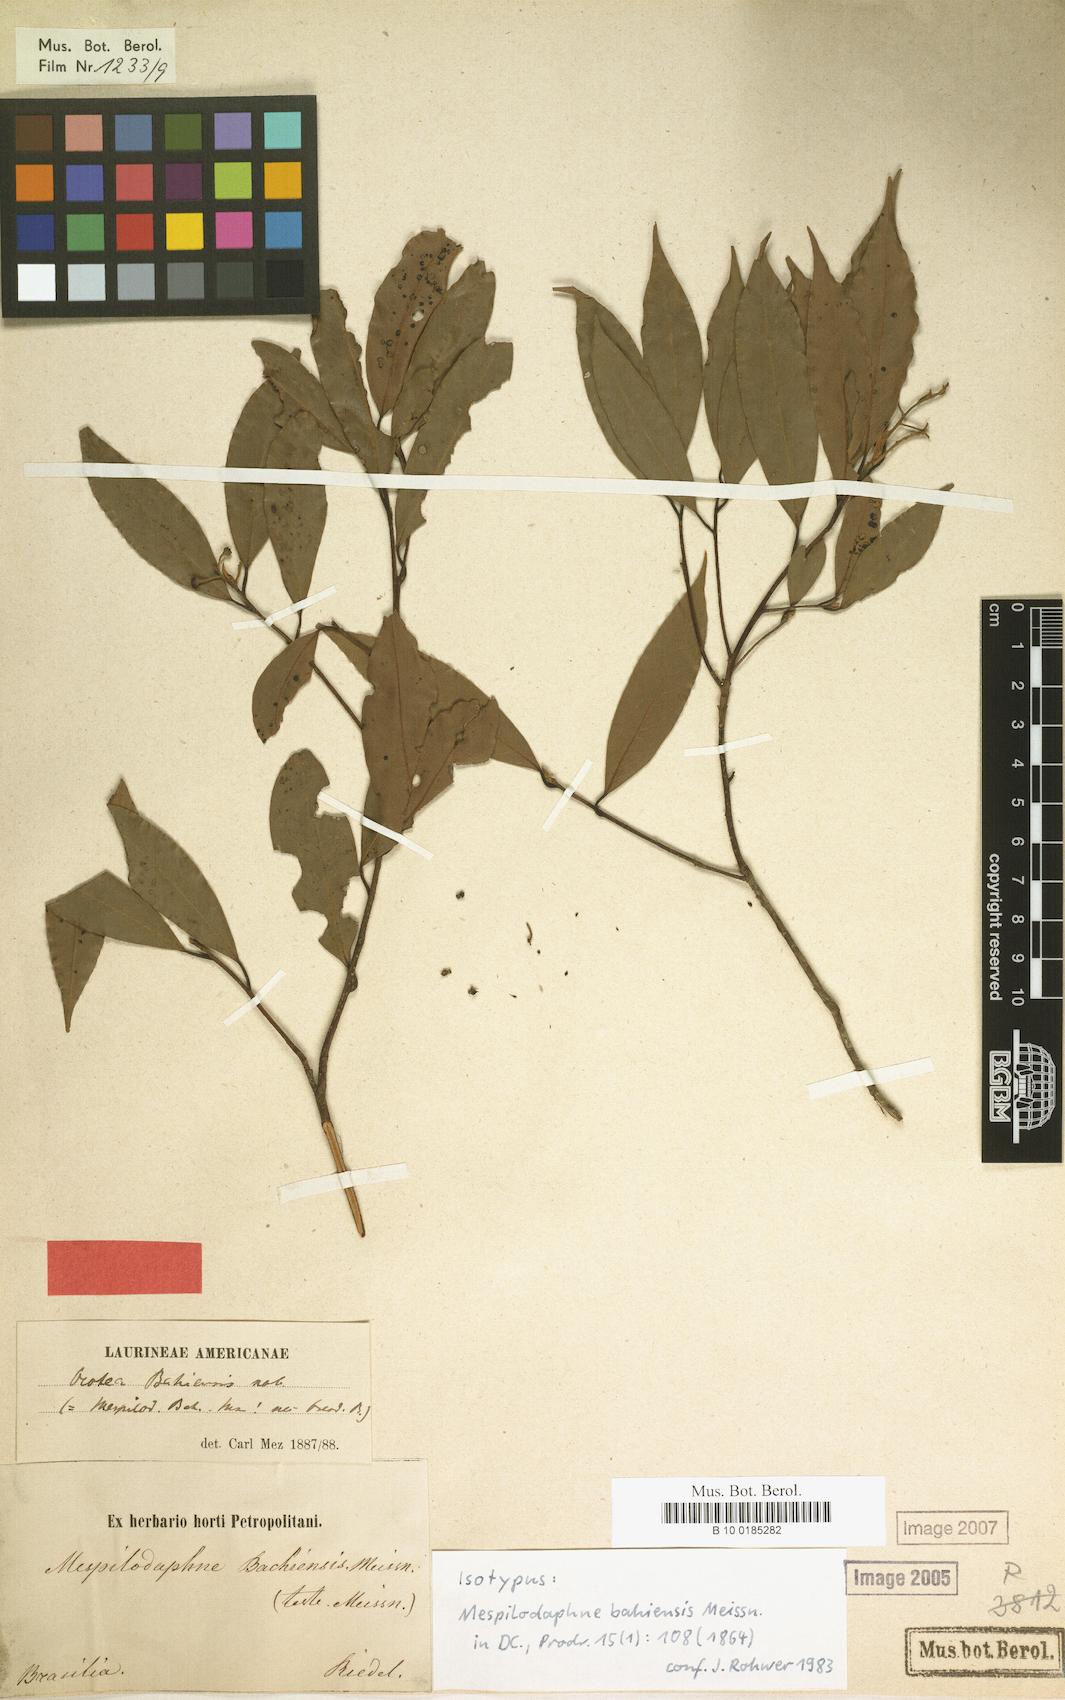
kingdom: Plantae
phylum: Tracheophyta
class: Magnoliopsida
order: Laurales
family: Lauraceae
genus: Urbanodendron
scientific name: Urbanodendron bahiense
